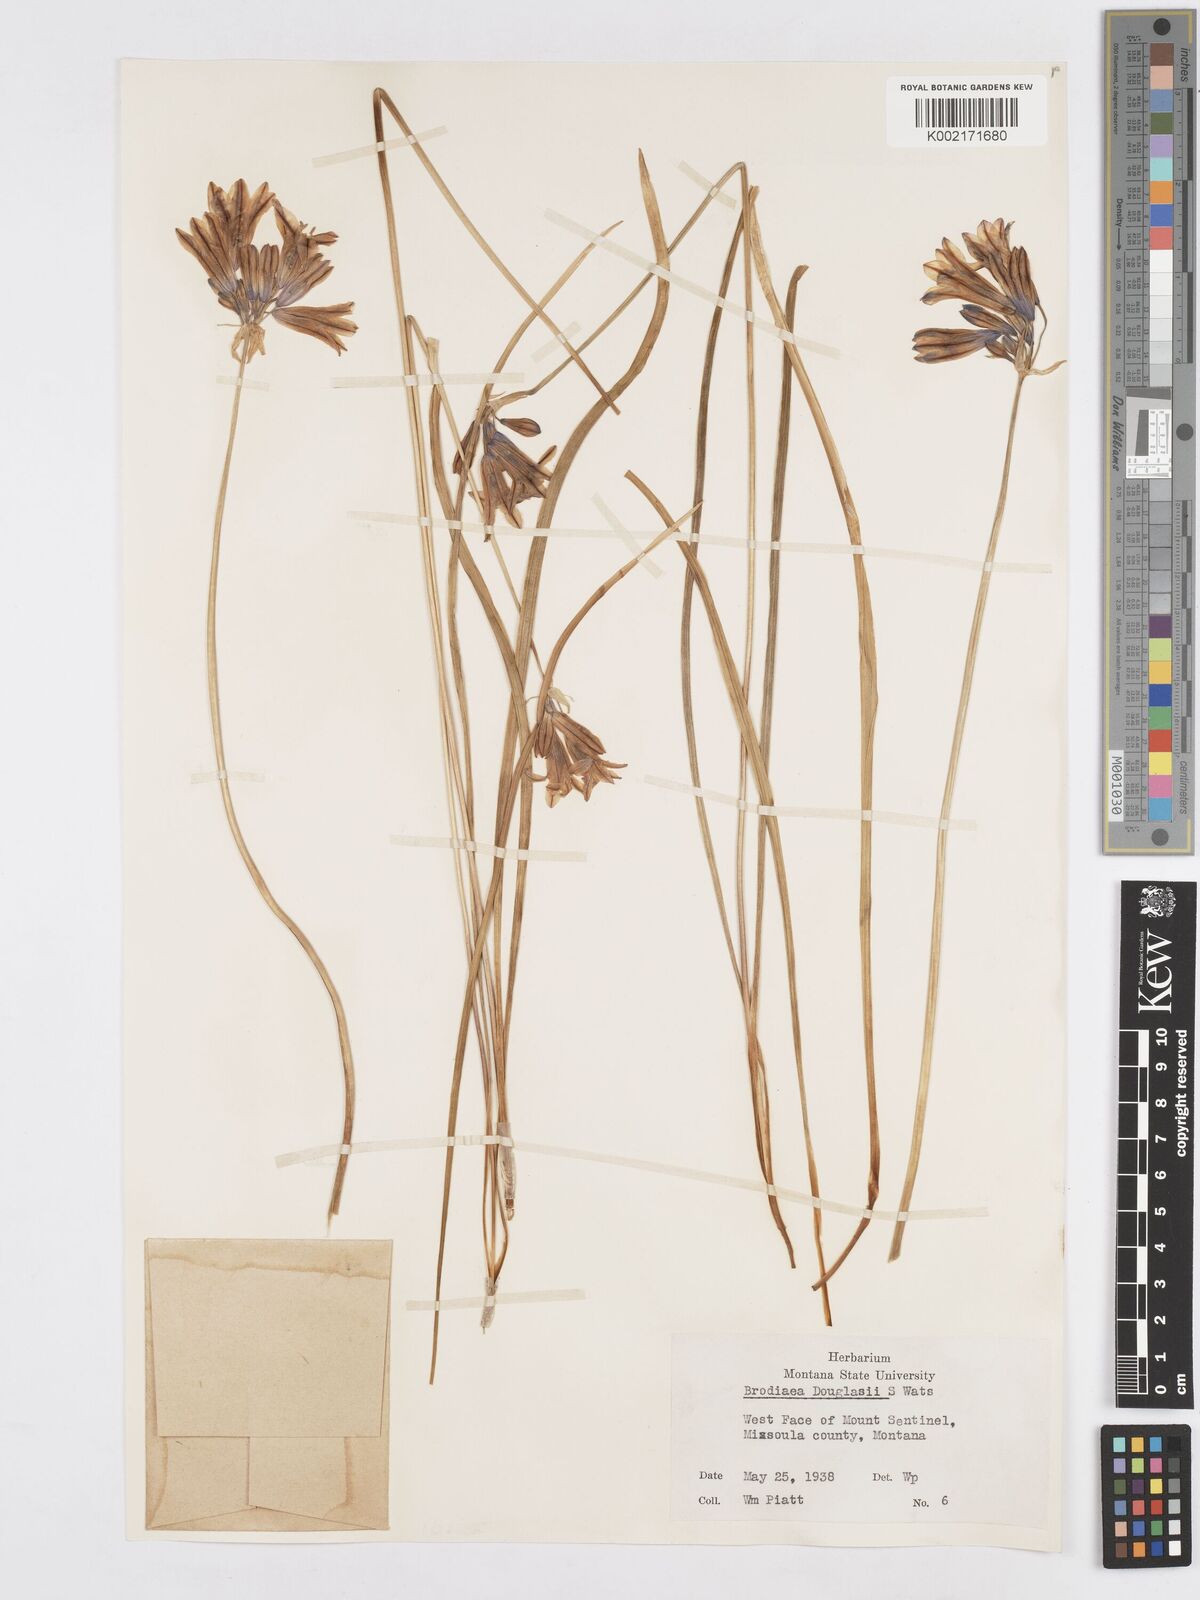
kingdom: Plantae
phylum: Tracheophyta
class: Liliopsida
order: Asparagales
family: Asparagaceae
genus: Triteleia
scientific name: Triteleia grandiflora
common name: Wild hyacinth
